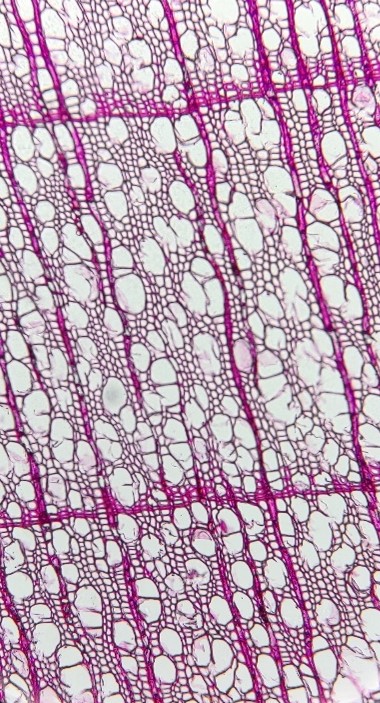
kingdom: Plantae
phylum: Tracheophyta
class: Magnoliopsida
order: Fagales
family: Nothofagaceae
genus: Nothofagus
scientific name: Nothofagus pumilio
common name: Lenga
